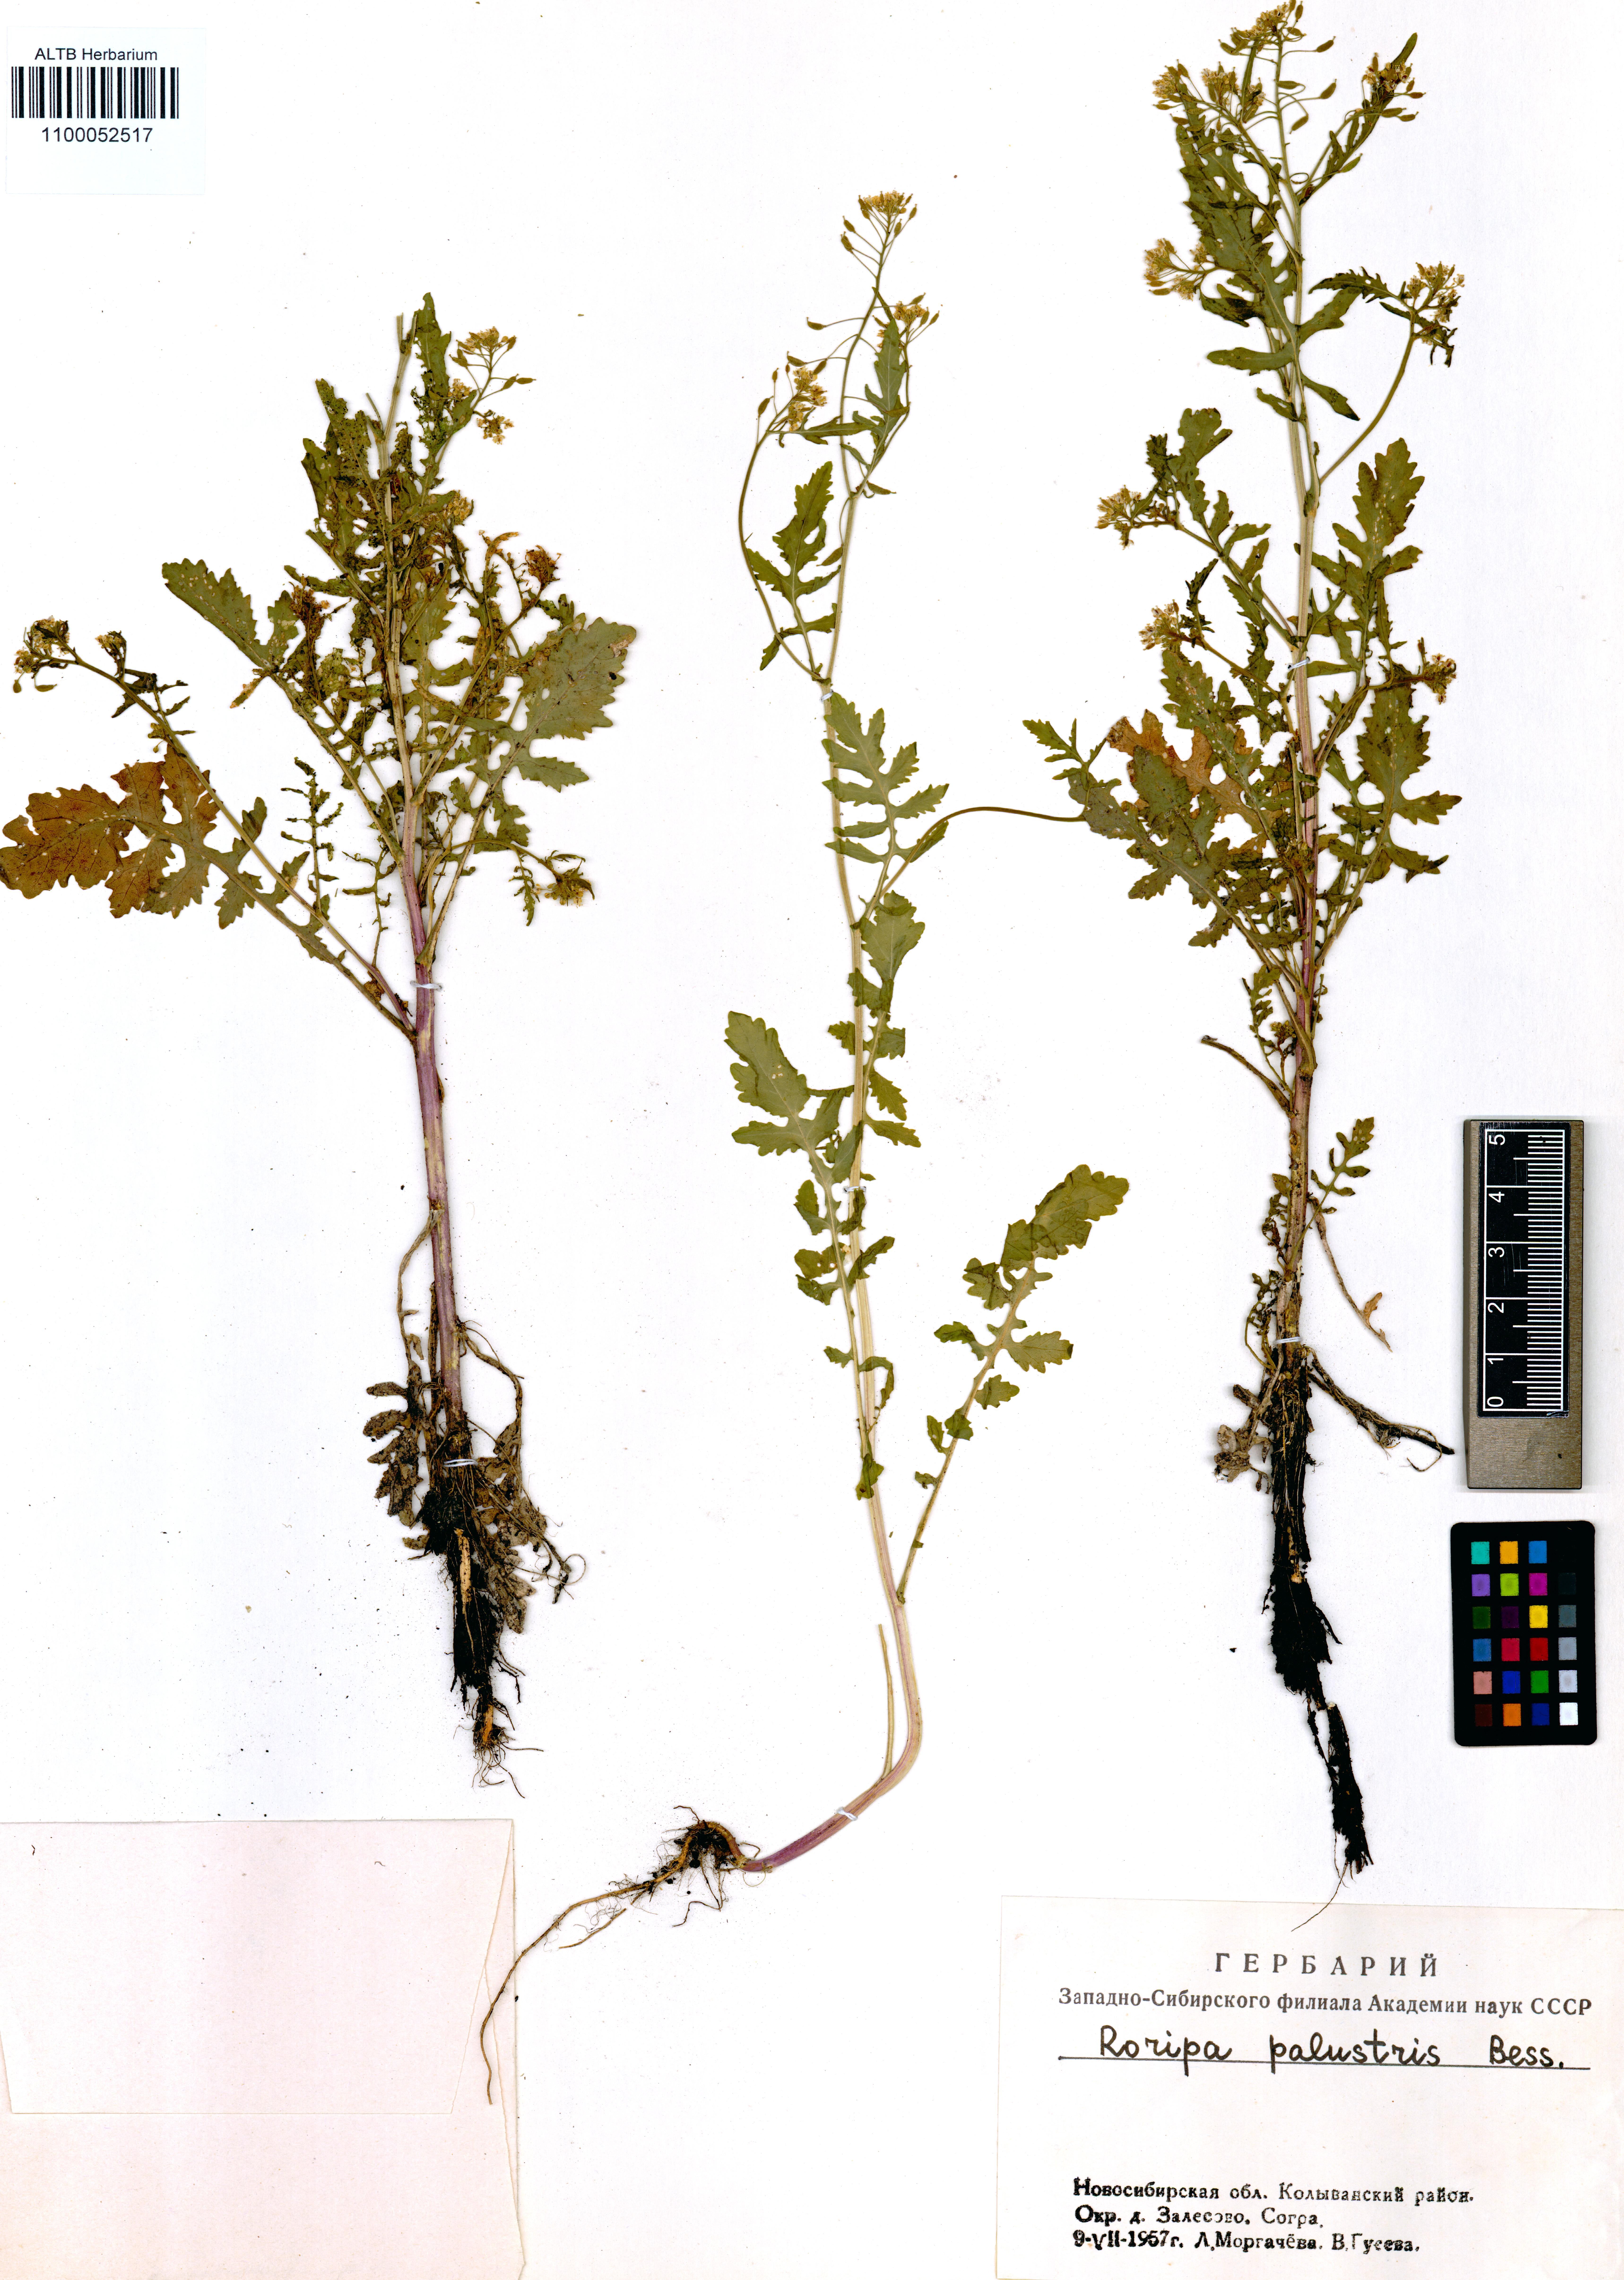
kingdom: Plantae
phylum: Tracheophyta
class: Magnoliopsida
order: Brassicales
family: Brassicaceae
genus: Rorippa
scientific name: Rorippa palustris
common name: Marsh yellow-cress
